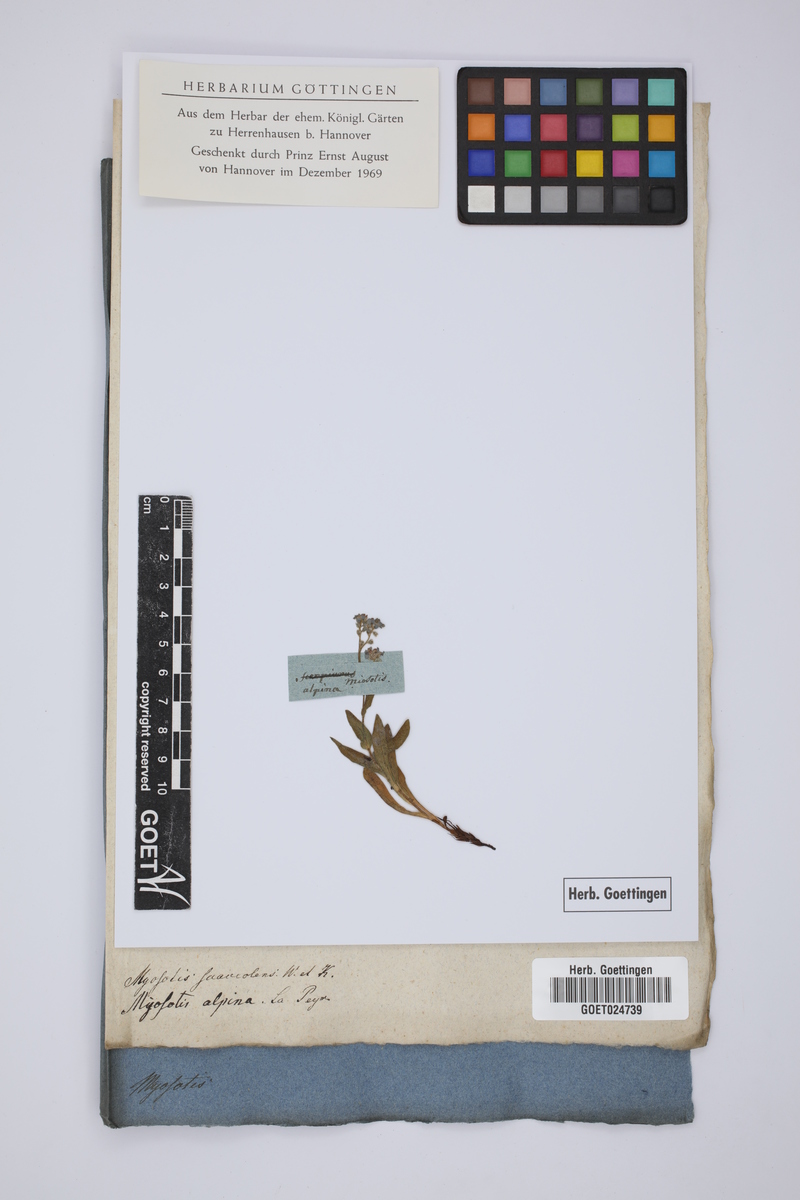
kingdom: Plantae
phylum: Tracheophyta
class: Magnoliopsida
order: Boraginales
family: Boraginaceae
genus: Myosotis
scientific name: Myosotis alpestris
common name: Alpine forget-me-not
